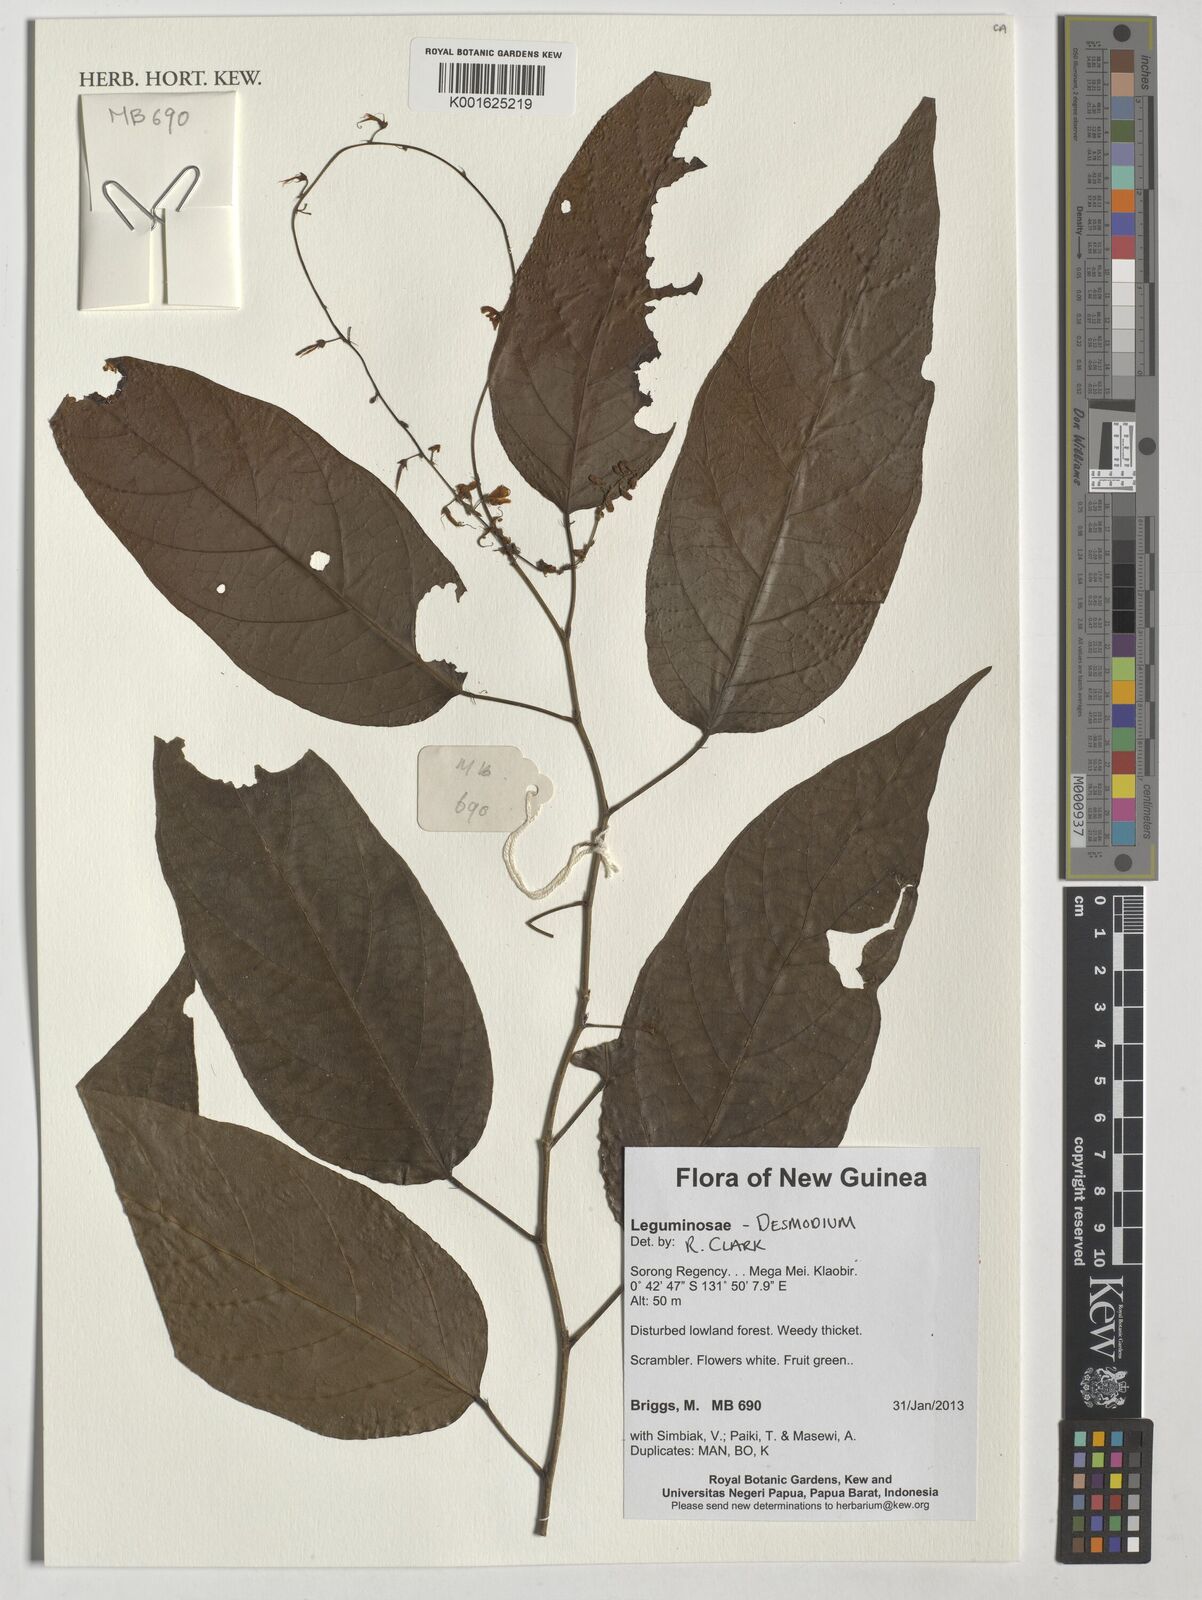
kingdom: Plantae
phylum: Tracheophyta
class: Magnoliopsida
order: Fabales
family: Fabaceae
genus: Desmodium
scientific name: Desmodium
